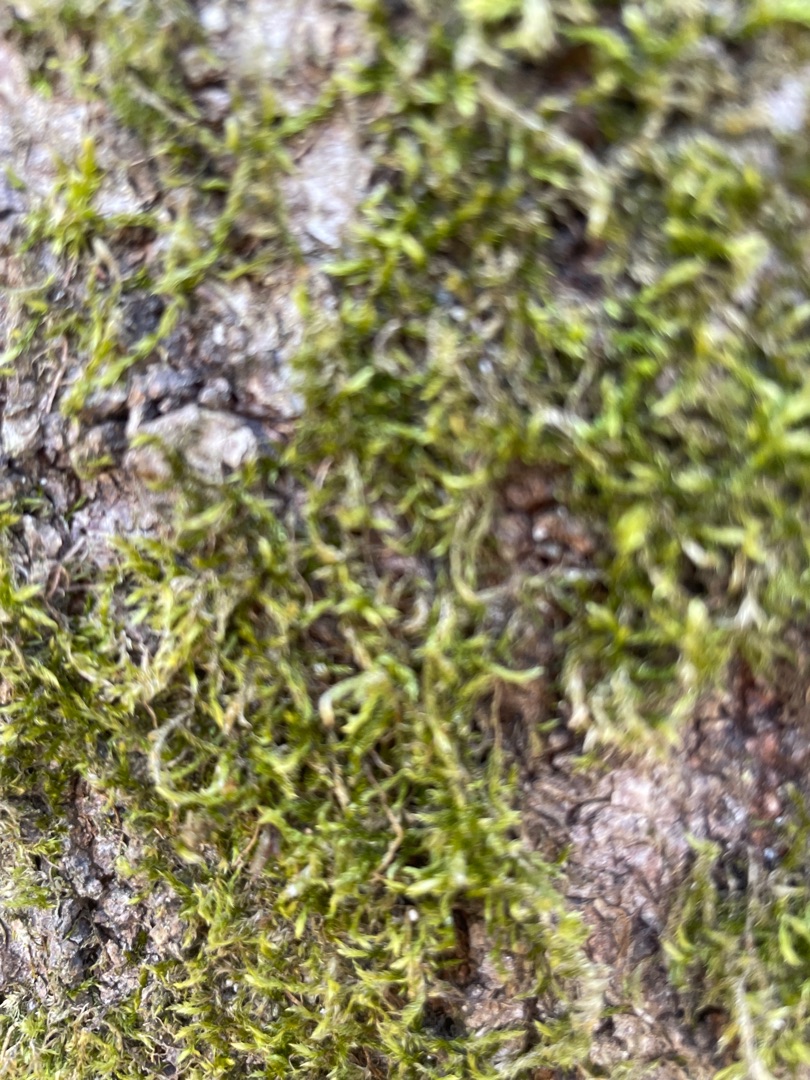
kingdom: Plantae
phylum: Bryophyta
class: Bryopsida
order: Hypnales
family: Hypnaceae
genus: Hypnum
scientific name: Hypnum
